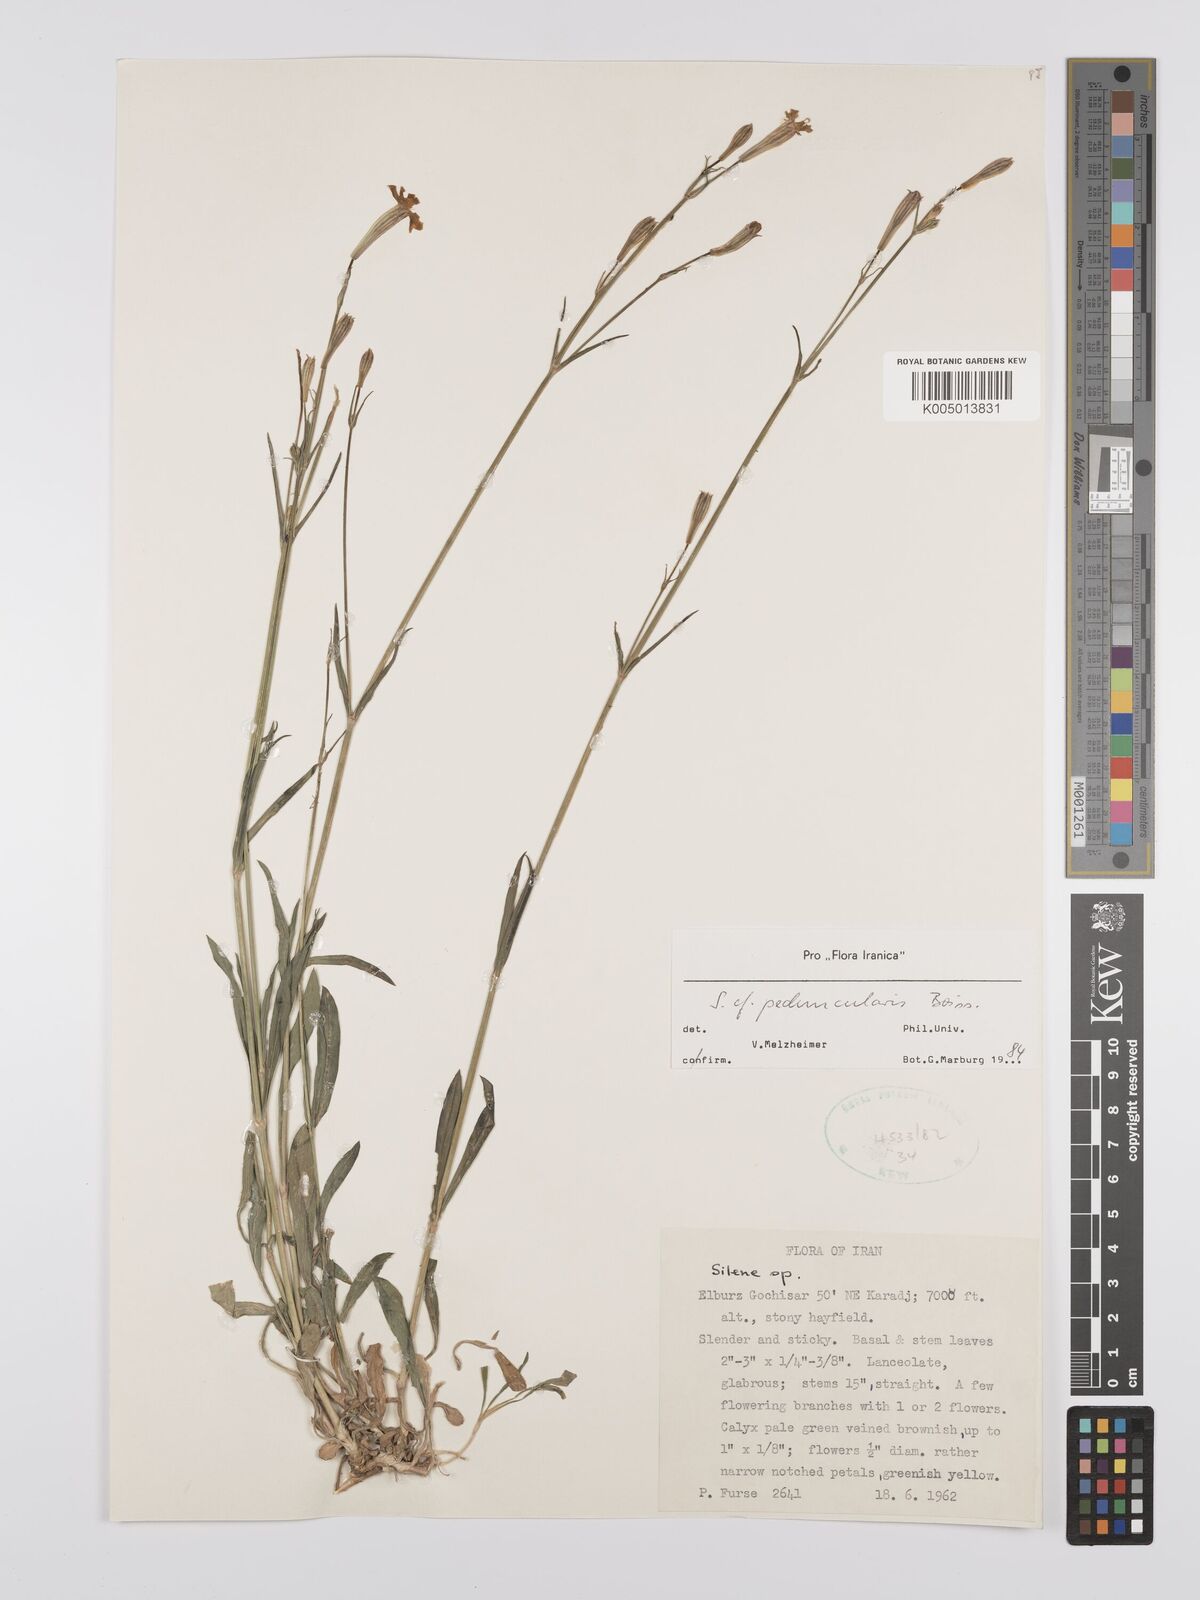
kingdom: Plantae
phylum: Tracheophyta
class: Magnoliopsida
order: Caryophyllales
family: Caryophyllaceae
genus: Silene
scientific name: Silene peduncularis
